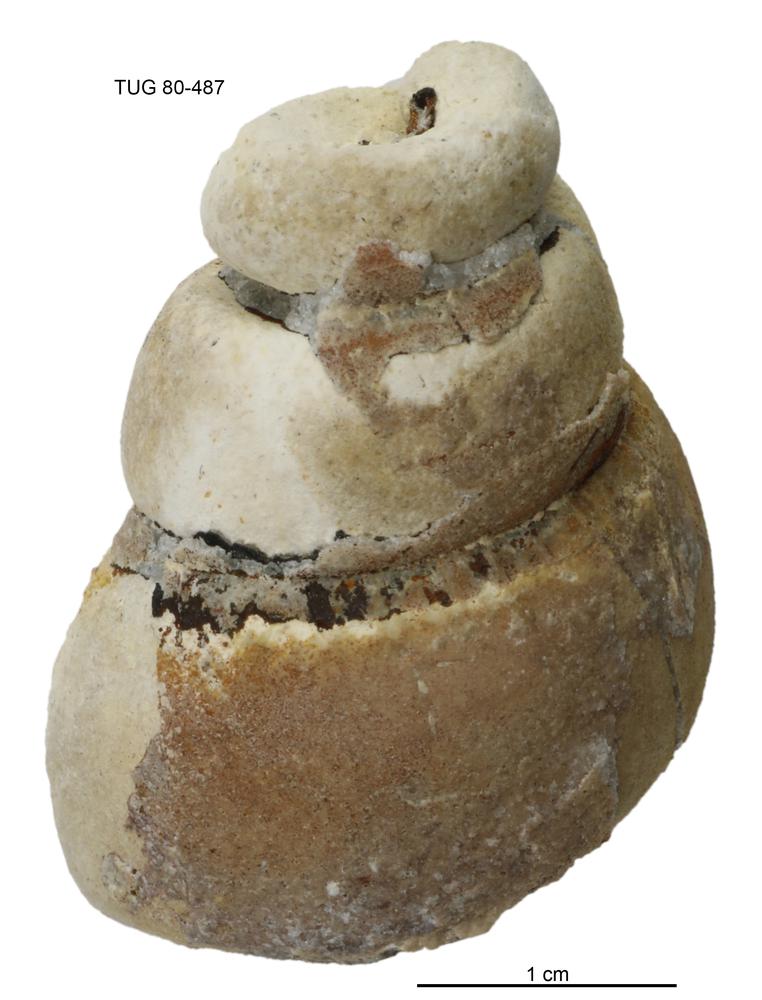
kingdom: Animalia
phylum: Mollusca
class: Gastropoda
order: Pleurotomariida
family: Murchisoniidae
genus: Hormotoma
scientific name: Hormotoma
